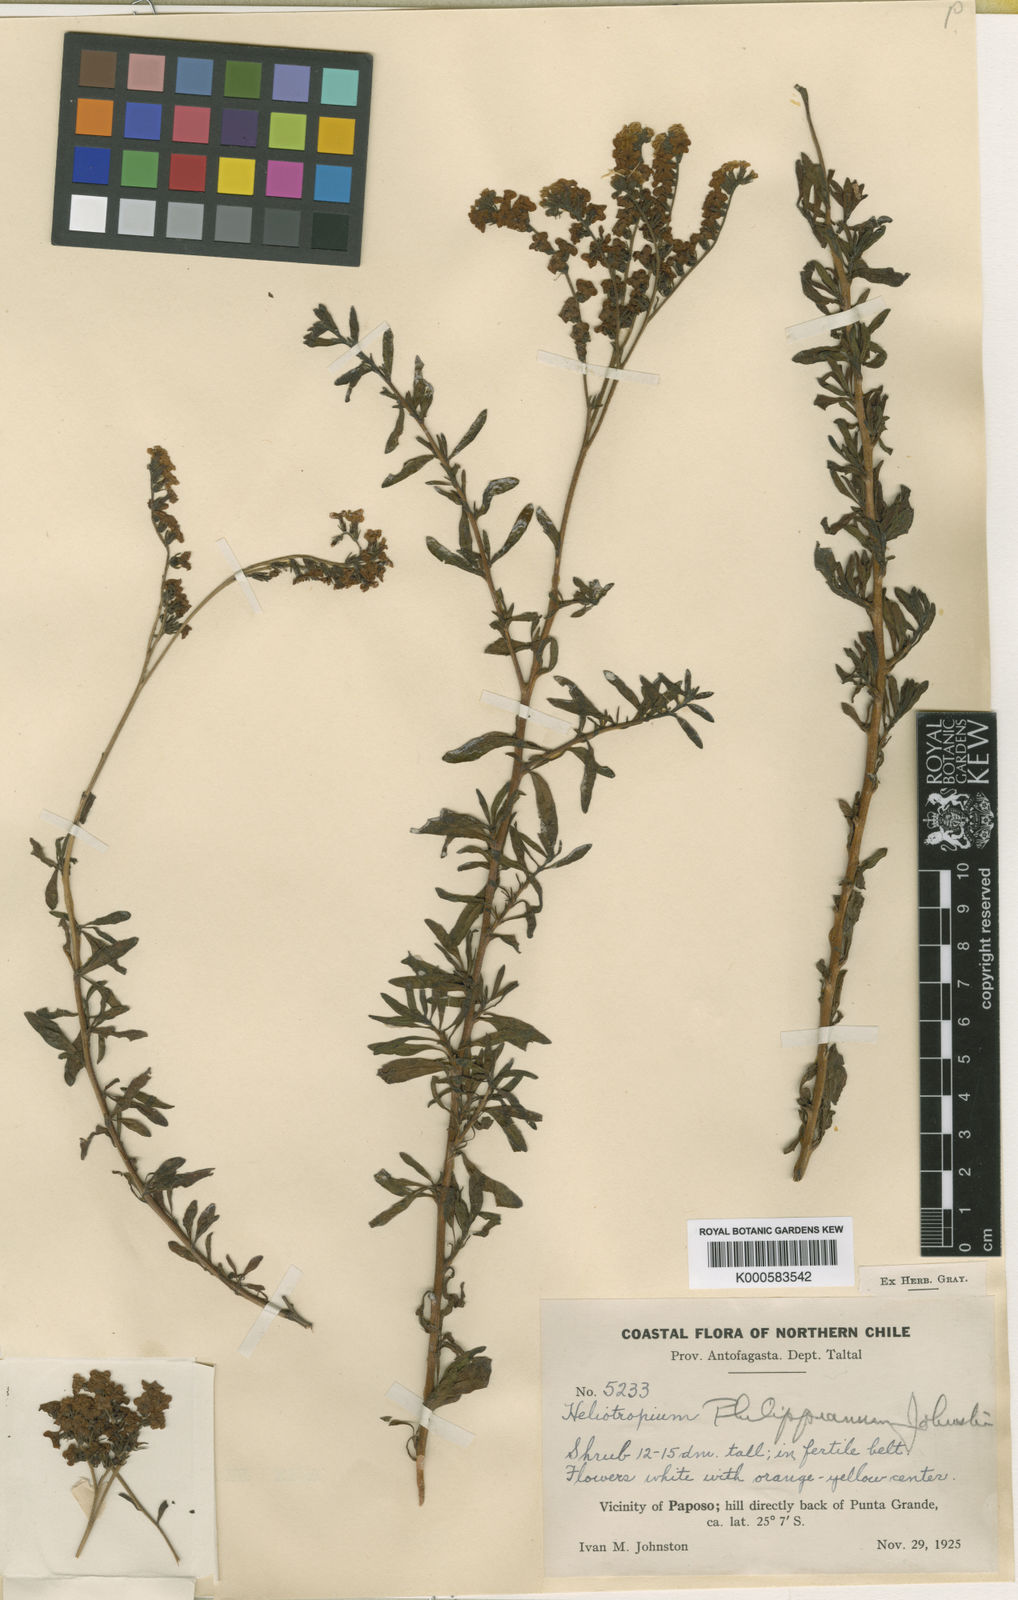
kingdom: Plantae
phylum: Tracheophyta
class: Magnoliopsida
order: Boraginales
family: Heliotropiaceae
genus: Heliotropium
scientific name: Heliotropium philippianum
